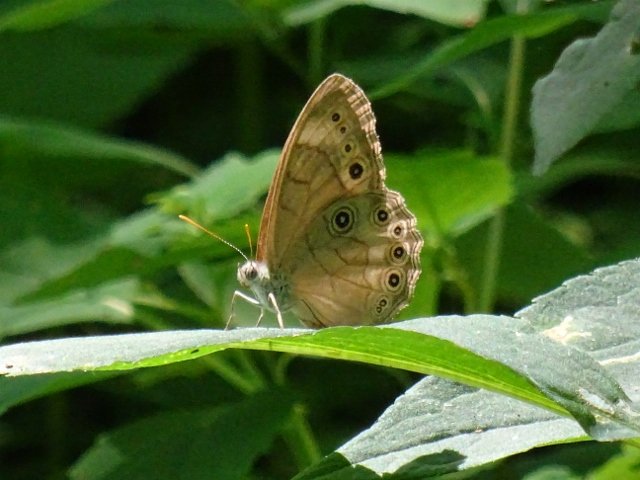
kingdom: Animalia
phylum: Arthropoda
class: Insecta
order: Lepidoptera
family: Nymphalidae
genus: Lethe
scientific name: Lethe eurydice
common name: Appalachian Eyed Brown
